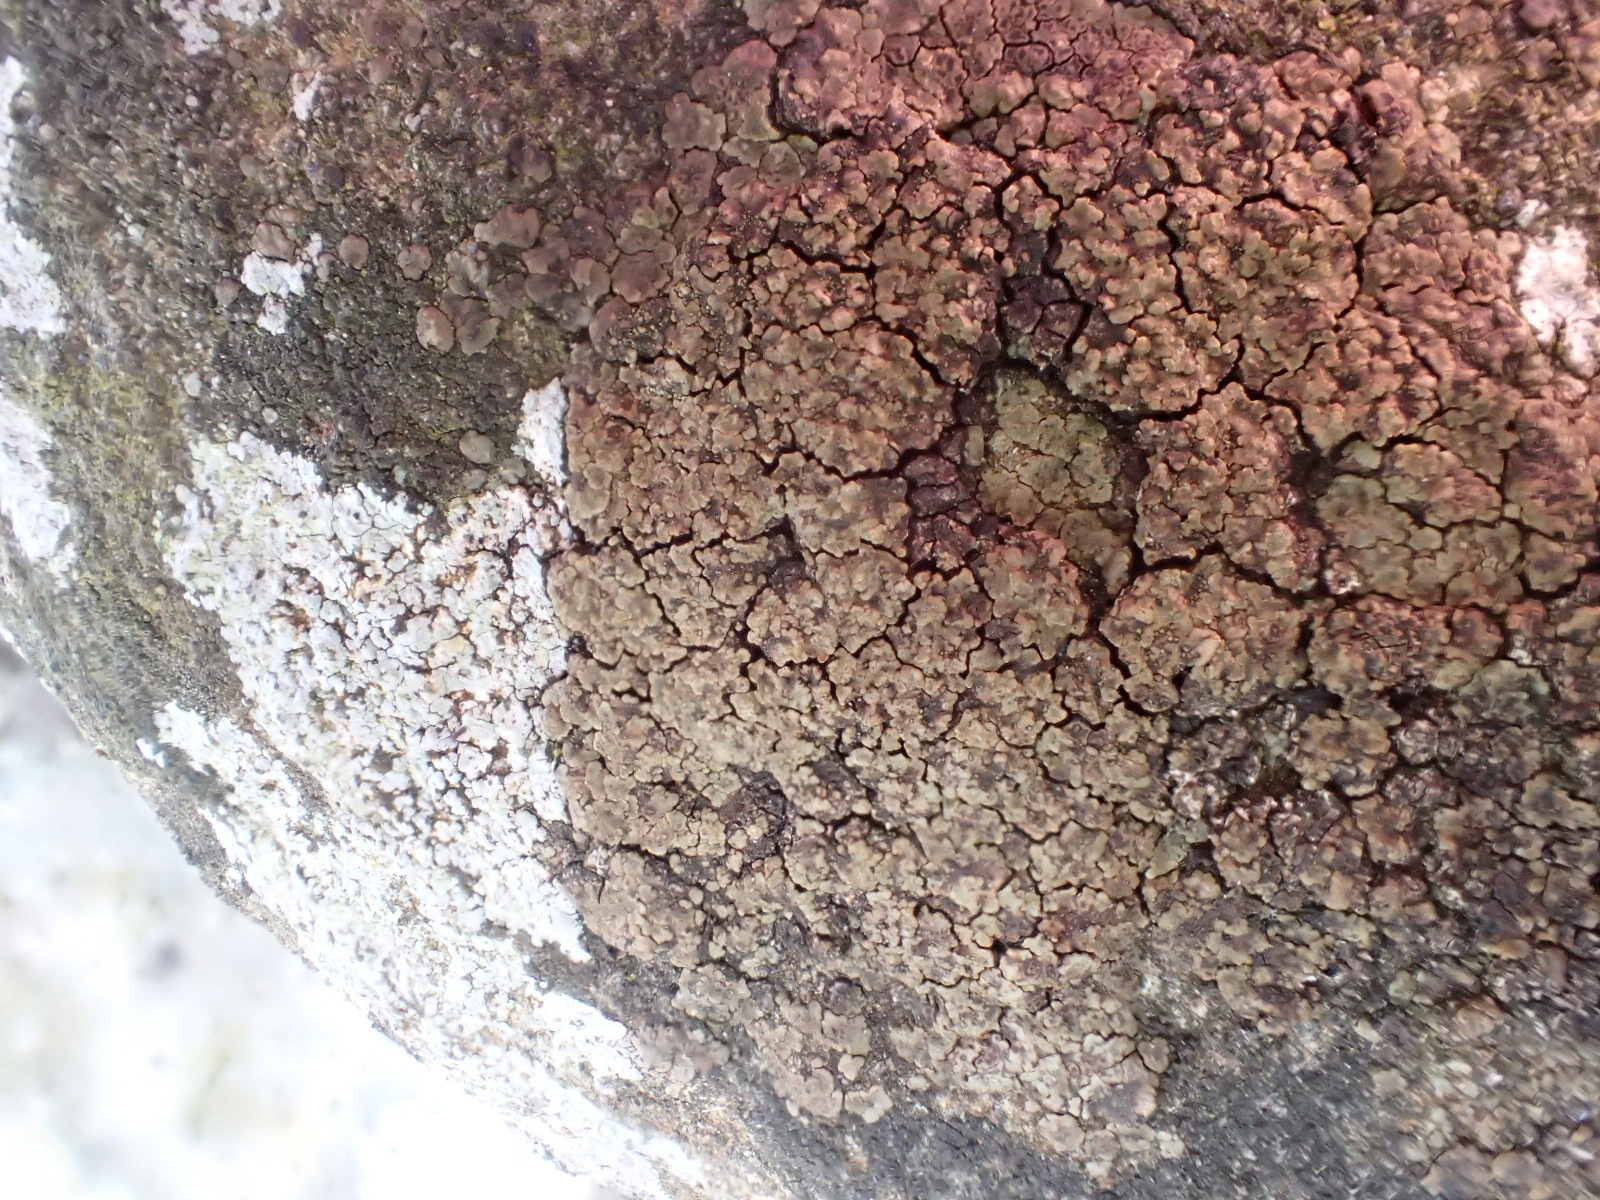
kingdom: Fungi
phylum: Ascomycota
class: Lecanoromycetes
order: Acarosporales
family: Acarosporaceae
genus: Acarospora
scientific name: Acarospora fuscata
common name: brun småsporelav
